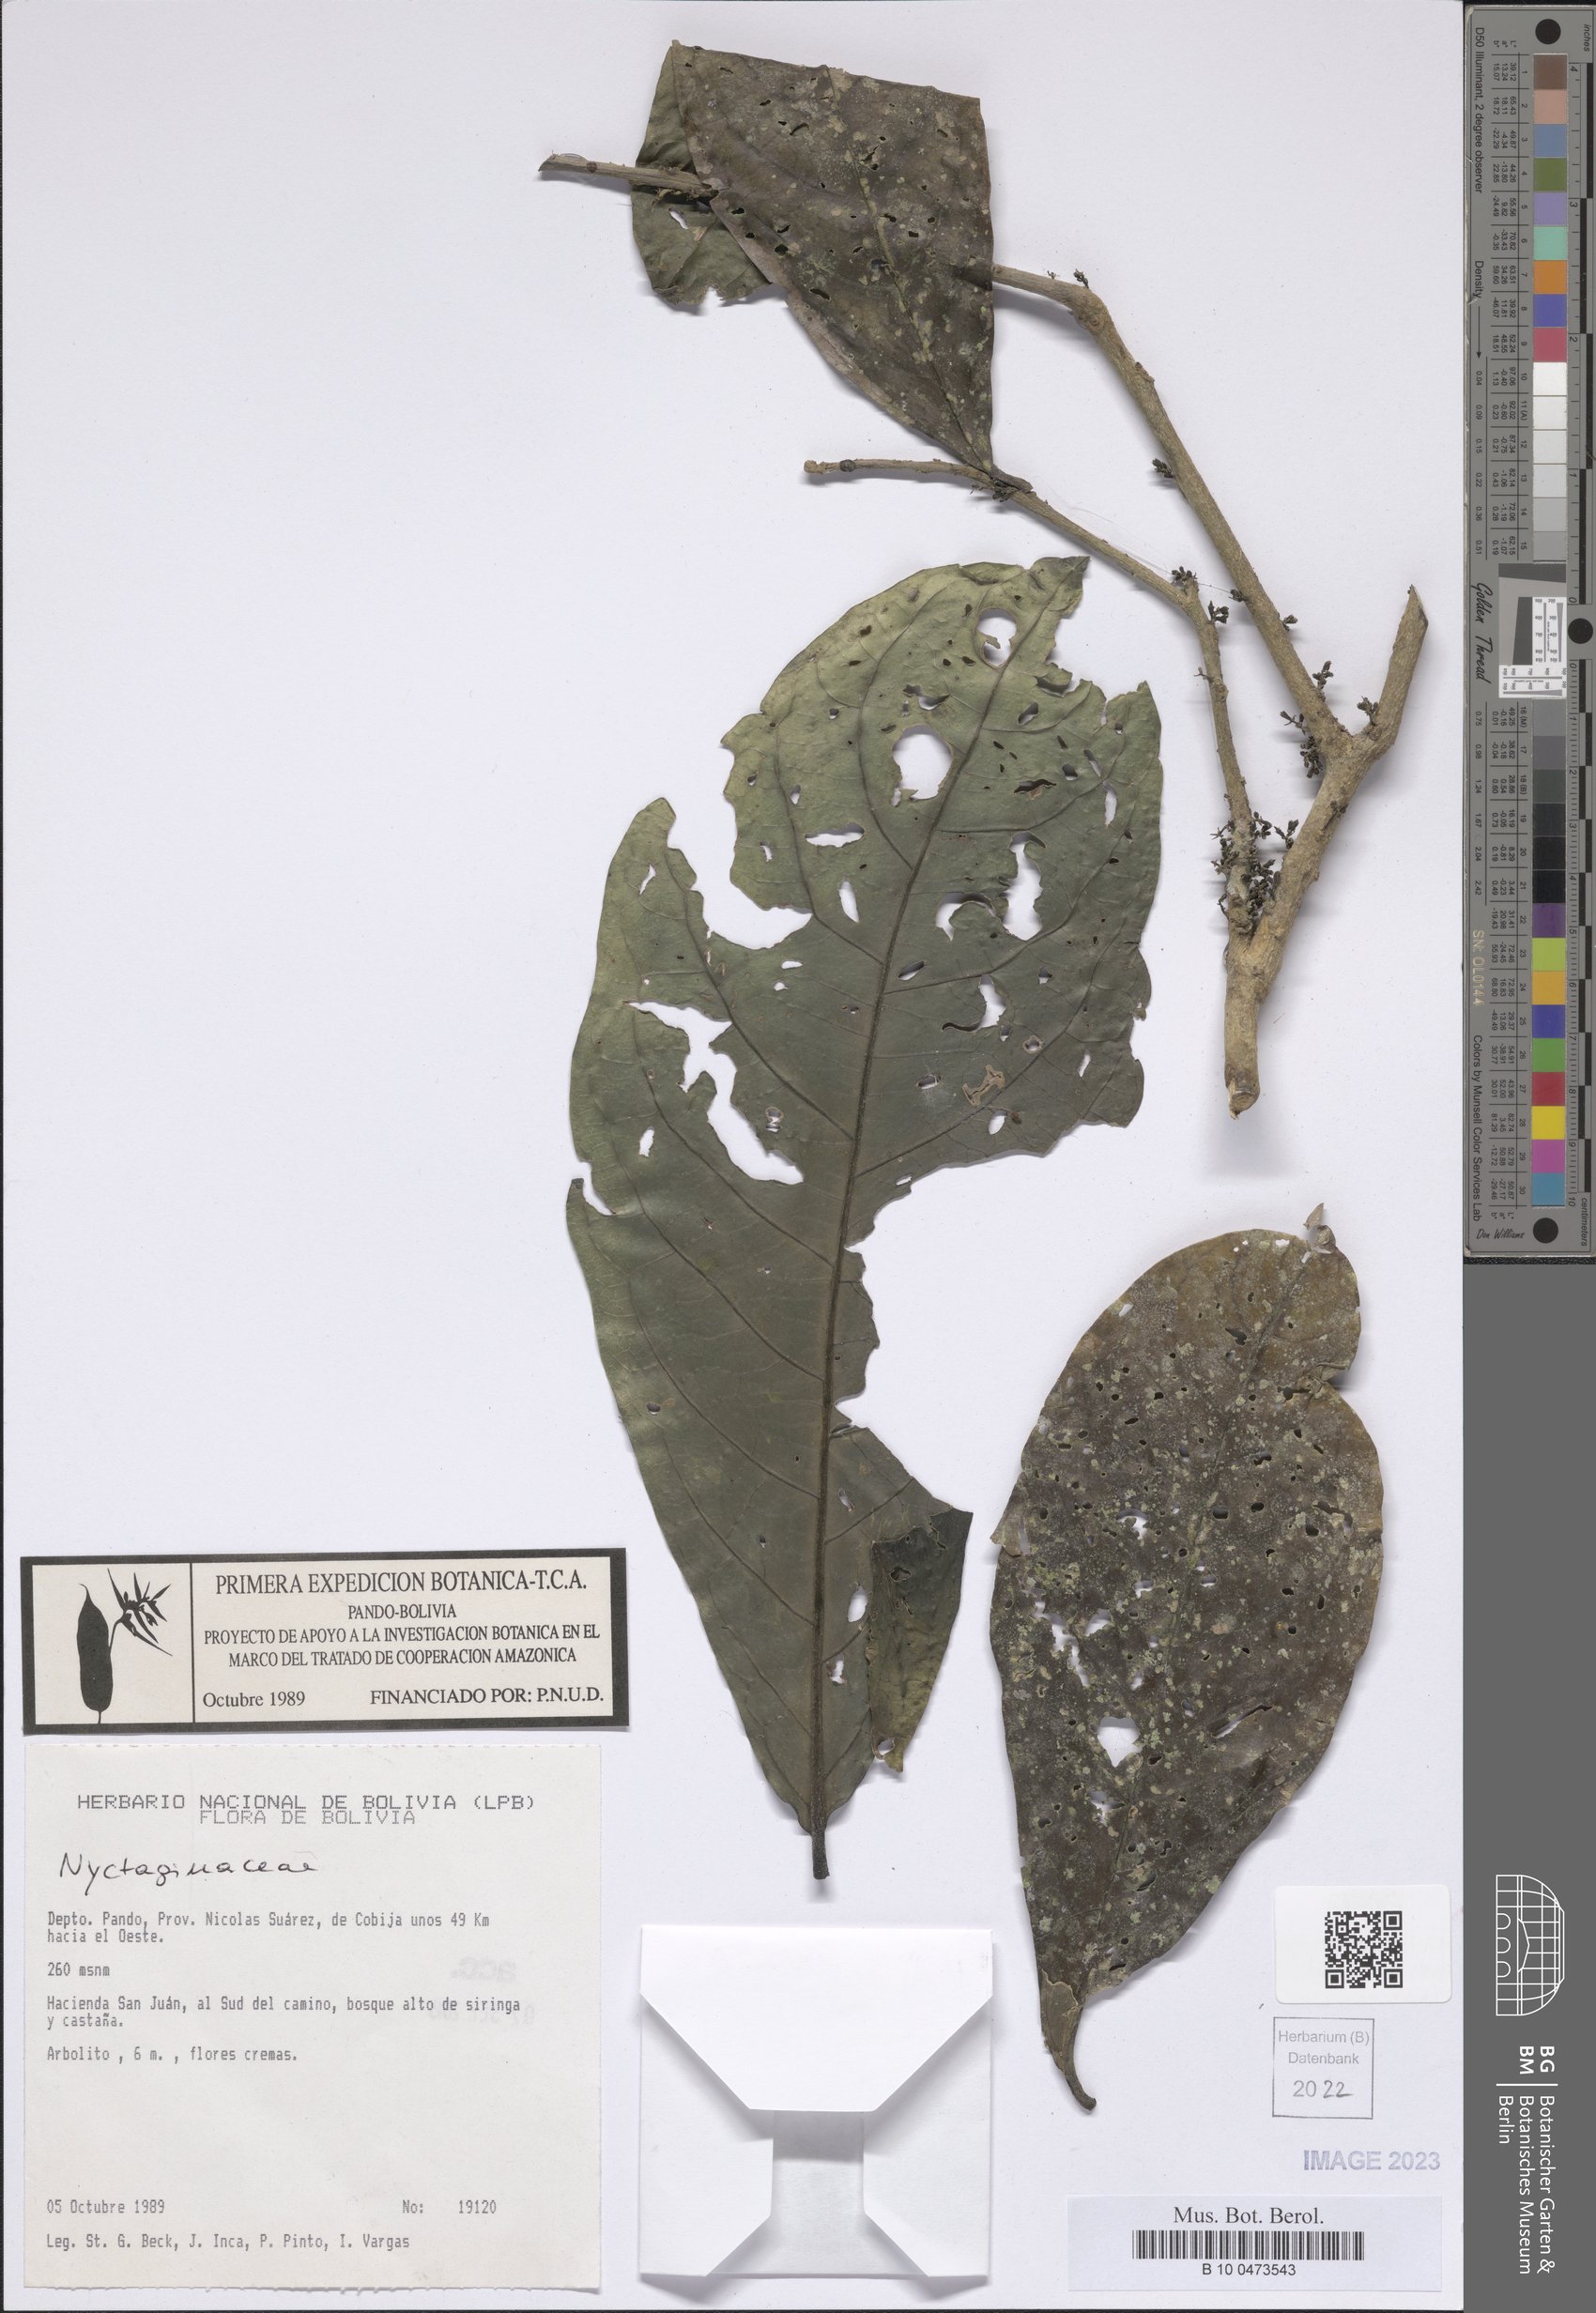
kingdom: Plantae
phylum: Tracheophyta
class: Magnoliopsida
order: Caryophyllales
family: Nyctaginaceae
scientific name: Nyctaginaceae
